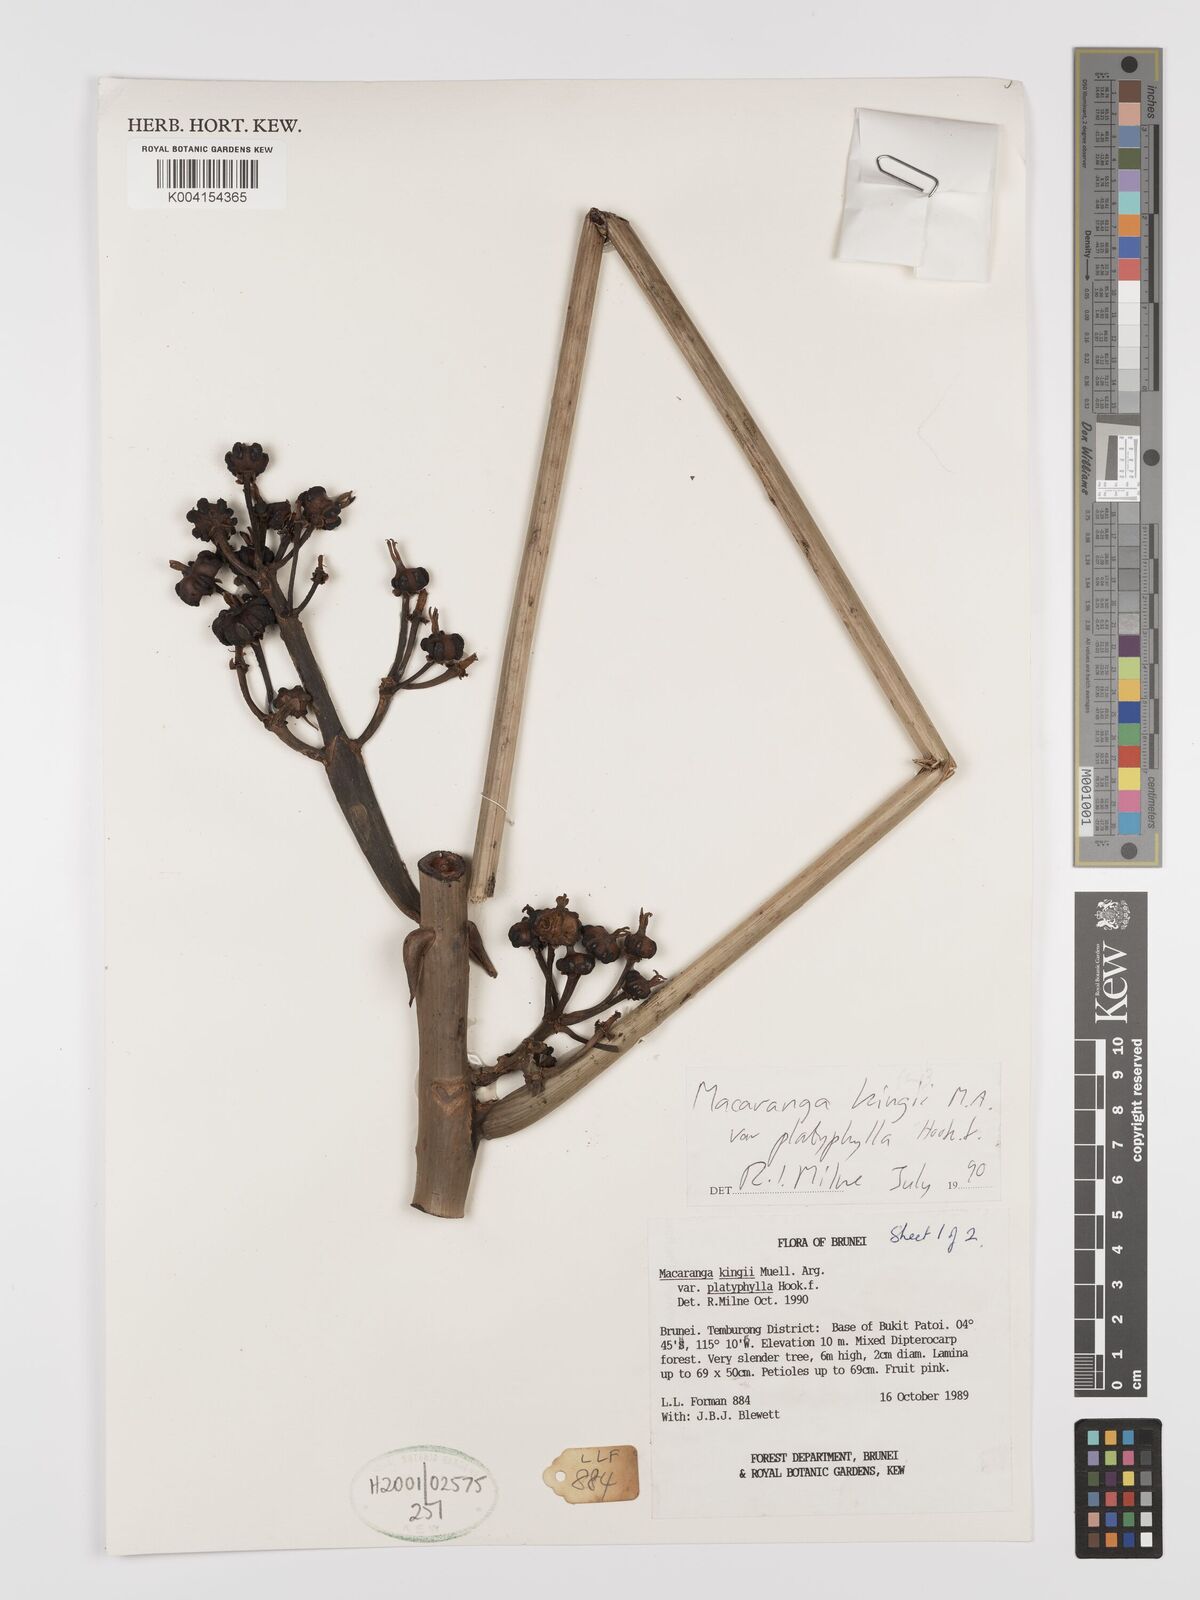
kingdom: Plantae
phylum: Tracheophyta
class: Magnoliopsida
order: Malpighiales
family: Euphorbiaceae
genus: Macaranga
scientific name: Macaranga umbrosa
